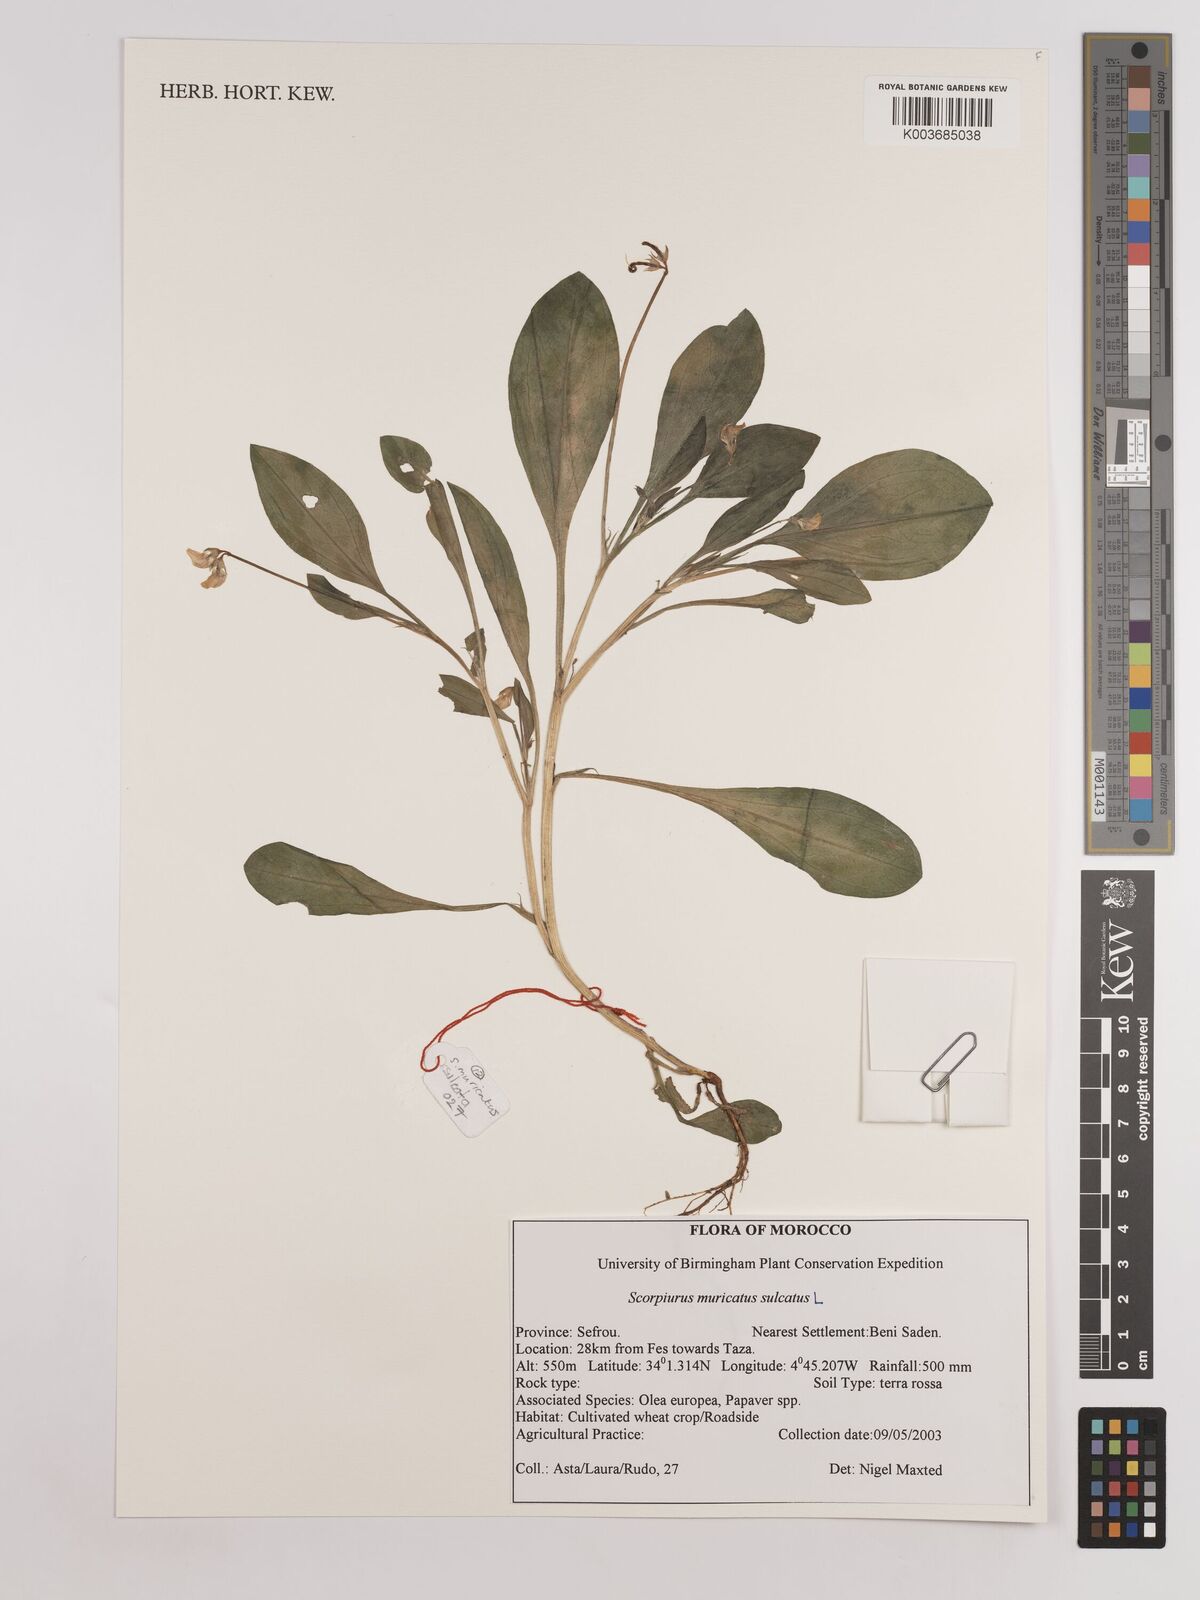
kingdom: Plantae
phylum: Tracheophyta
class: Magnoliopsida
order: Fabales
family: Fabaceae
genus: Scorpiurus
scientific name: Scorpiurus muricatus
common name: Caterpillar-plant
